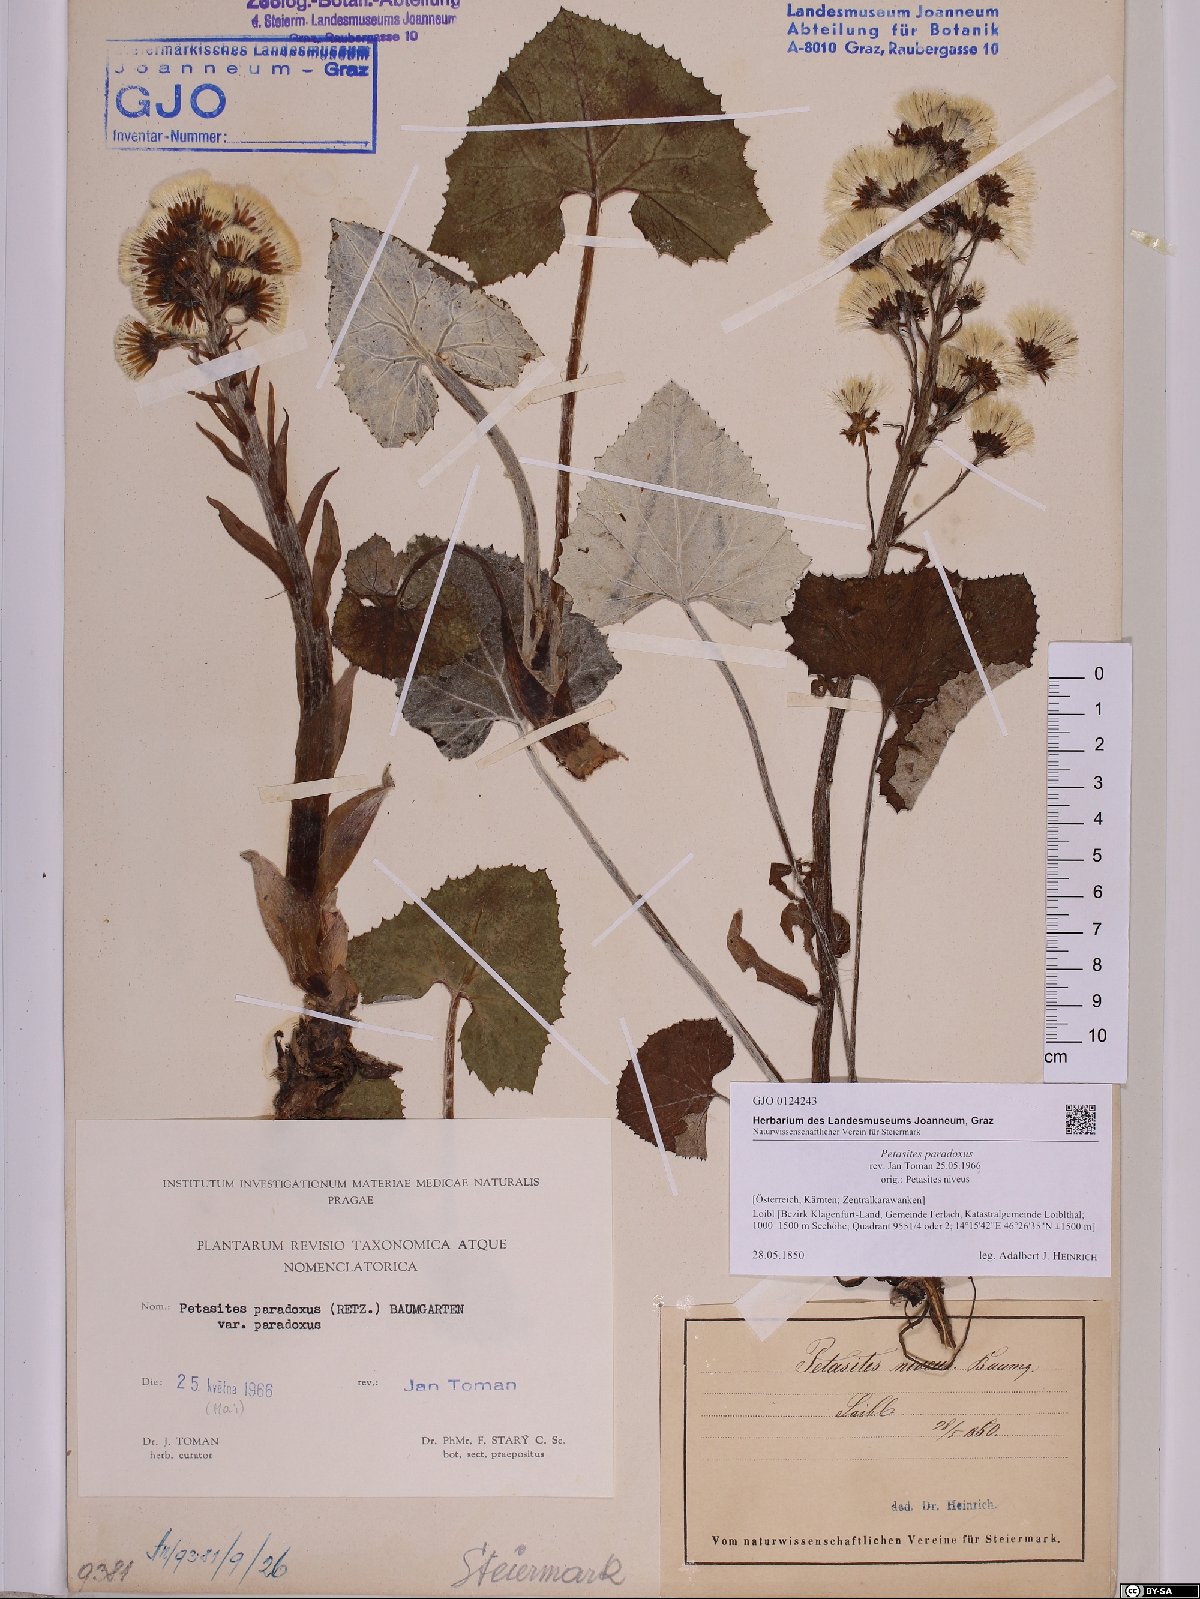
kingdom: Plantae
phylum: Tracheophyta
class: Magnoliopsida
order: Asterales
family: Asteraceae
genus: Petasites
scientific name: Petasites paradoxus
